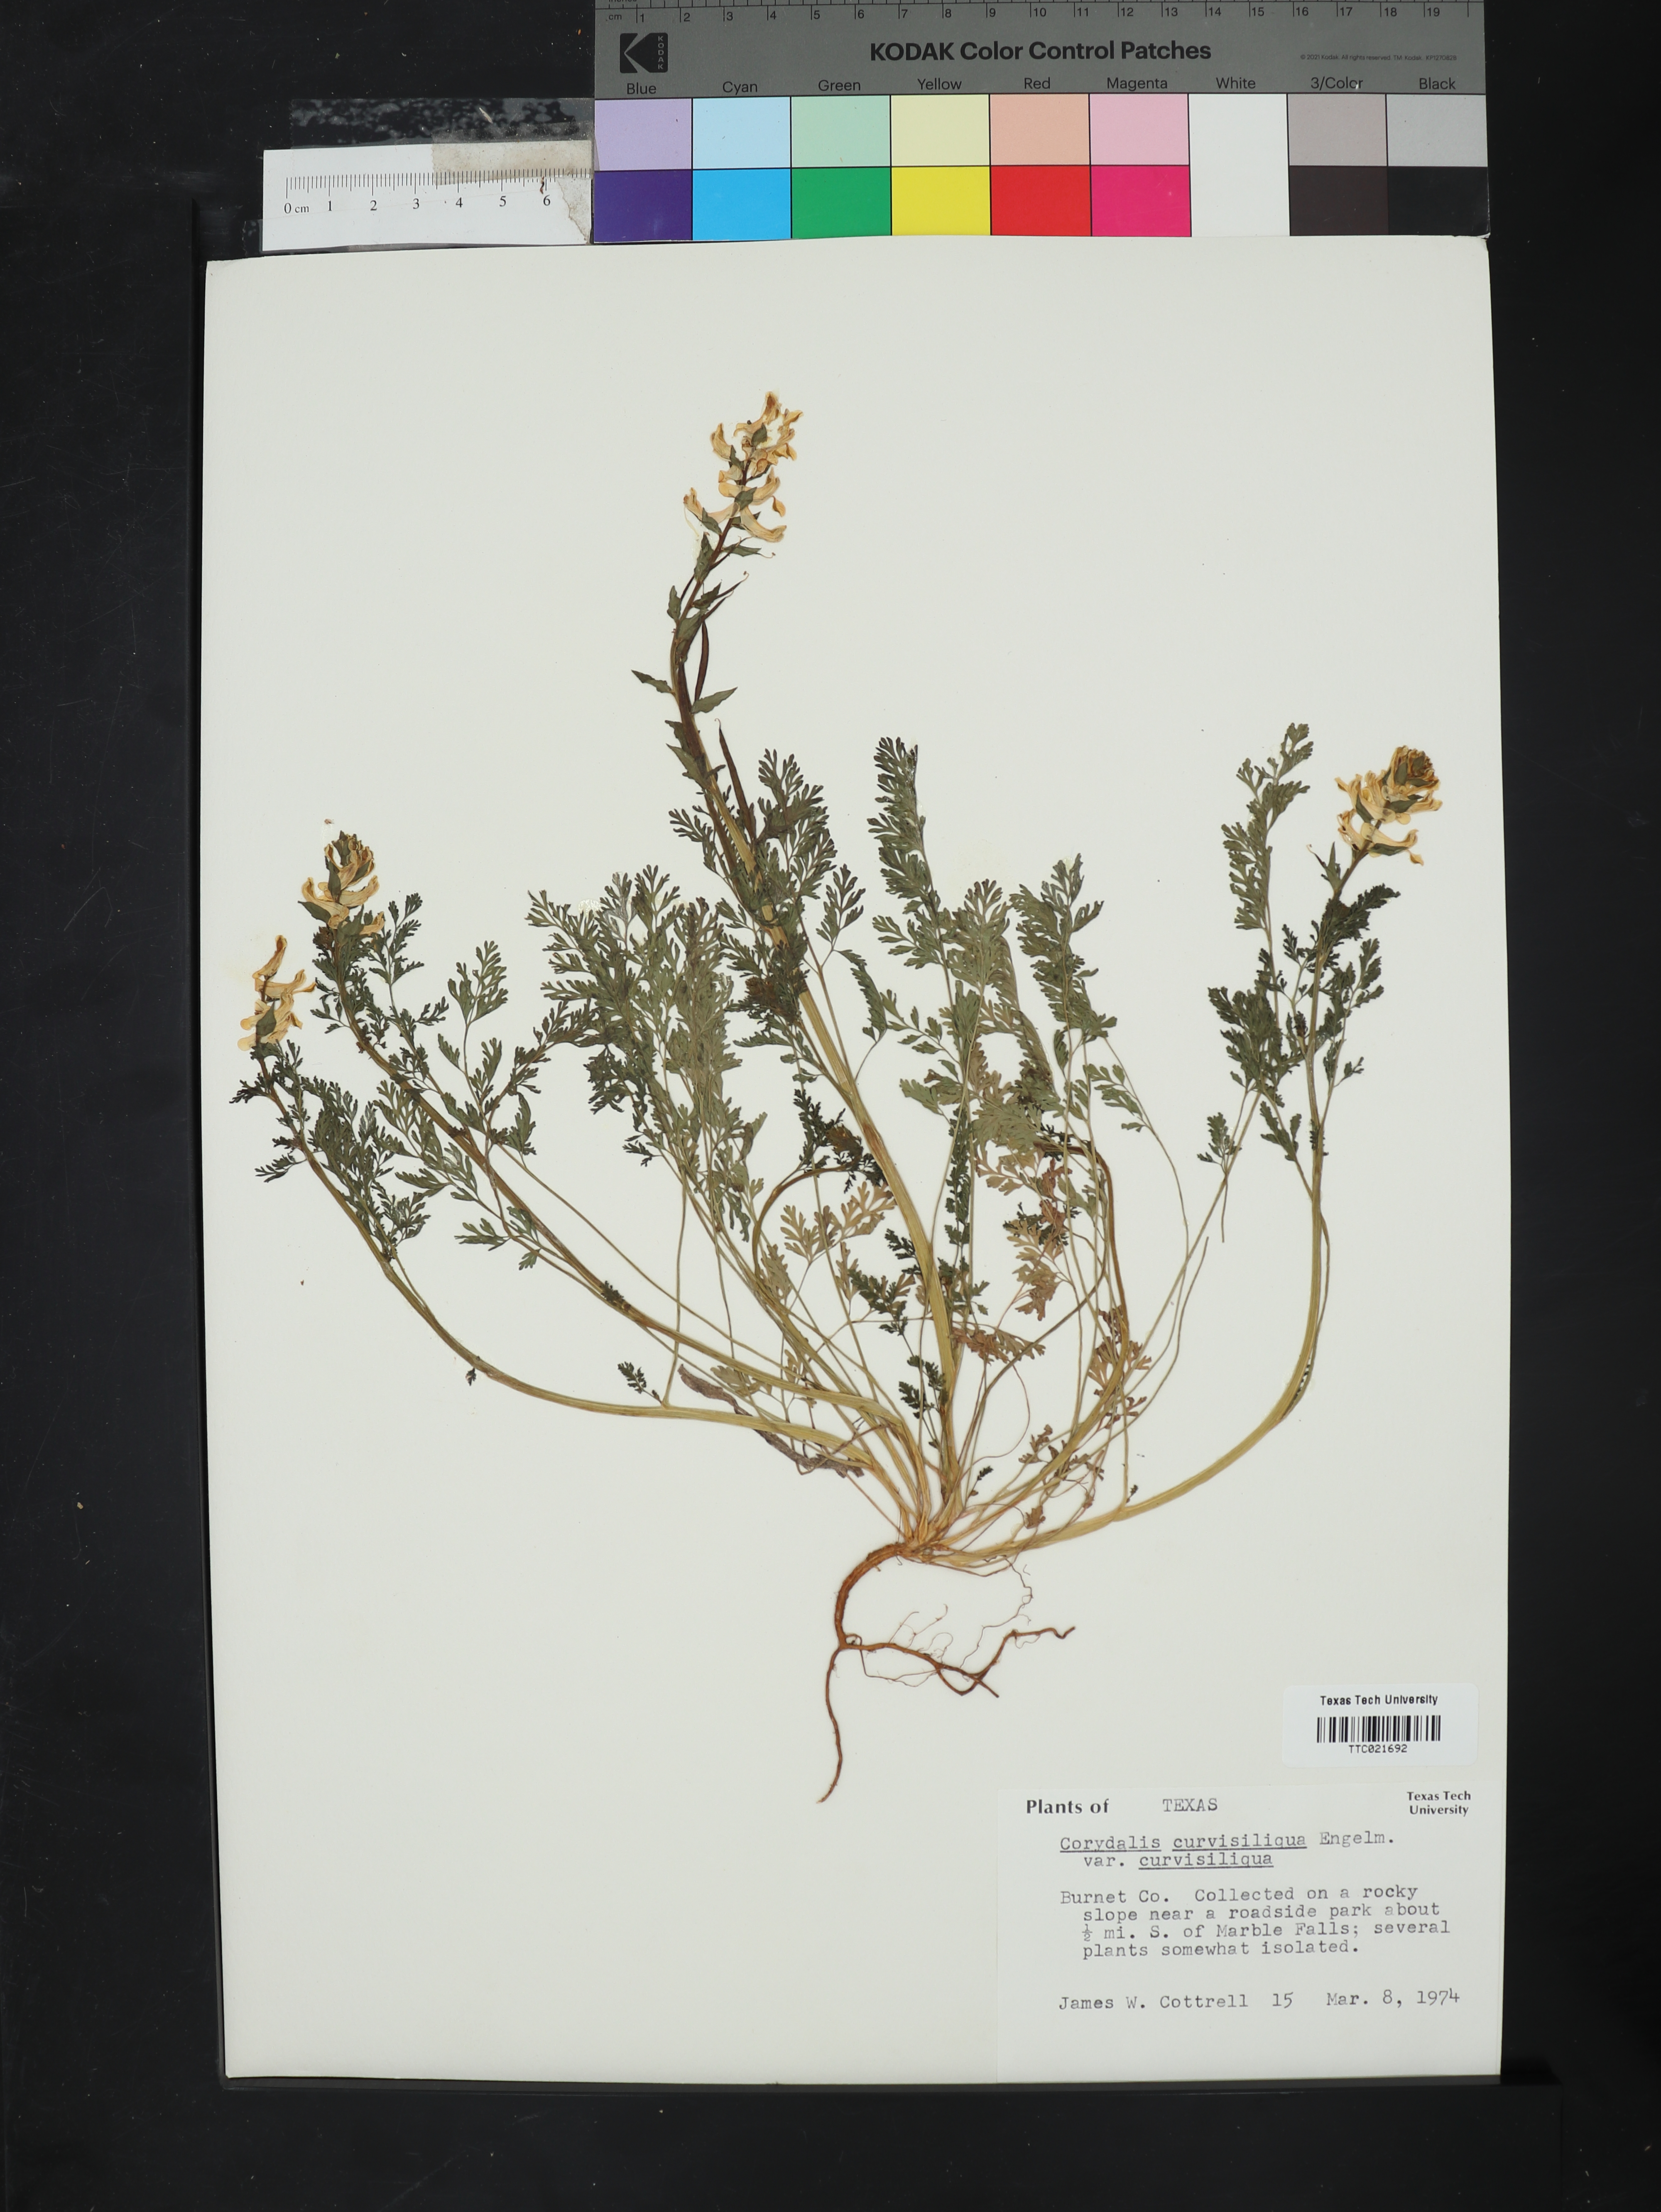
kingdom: Plantae
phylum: Tracheophyta
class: Magnoliopsida
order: Ranunculales
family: Papaveraceae
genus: Corydalis
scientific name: Corydalis curvisiliqua
